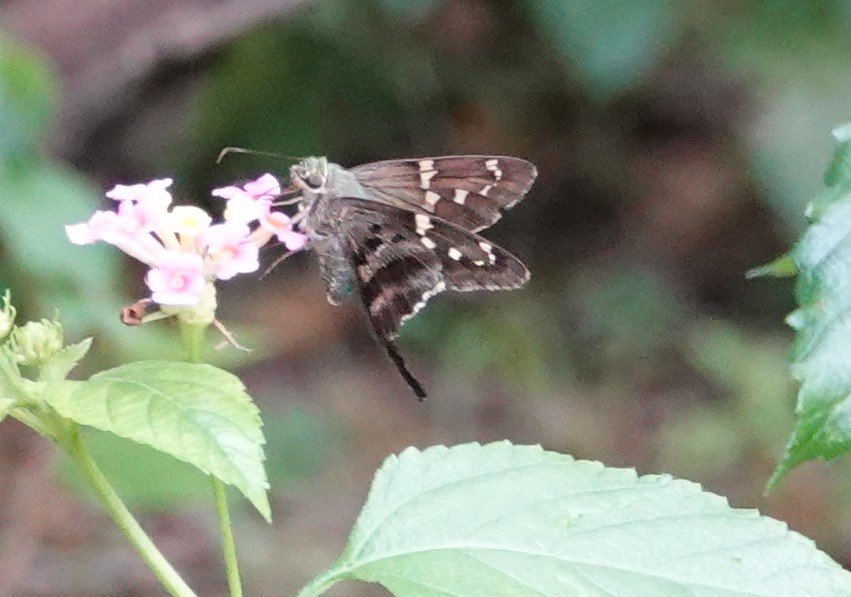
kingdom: Animalia
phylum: Arthropoda
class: Insecta
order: Lepidoptera
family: Hesperiidae
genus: Urbanus
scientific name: Urbanus proteus
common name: Long-tailed Skipper
